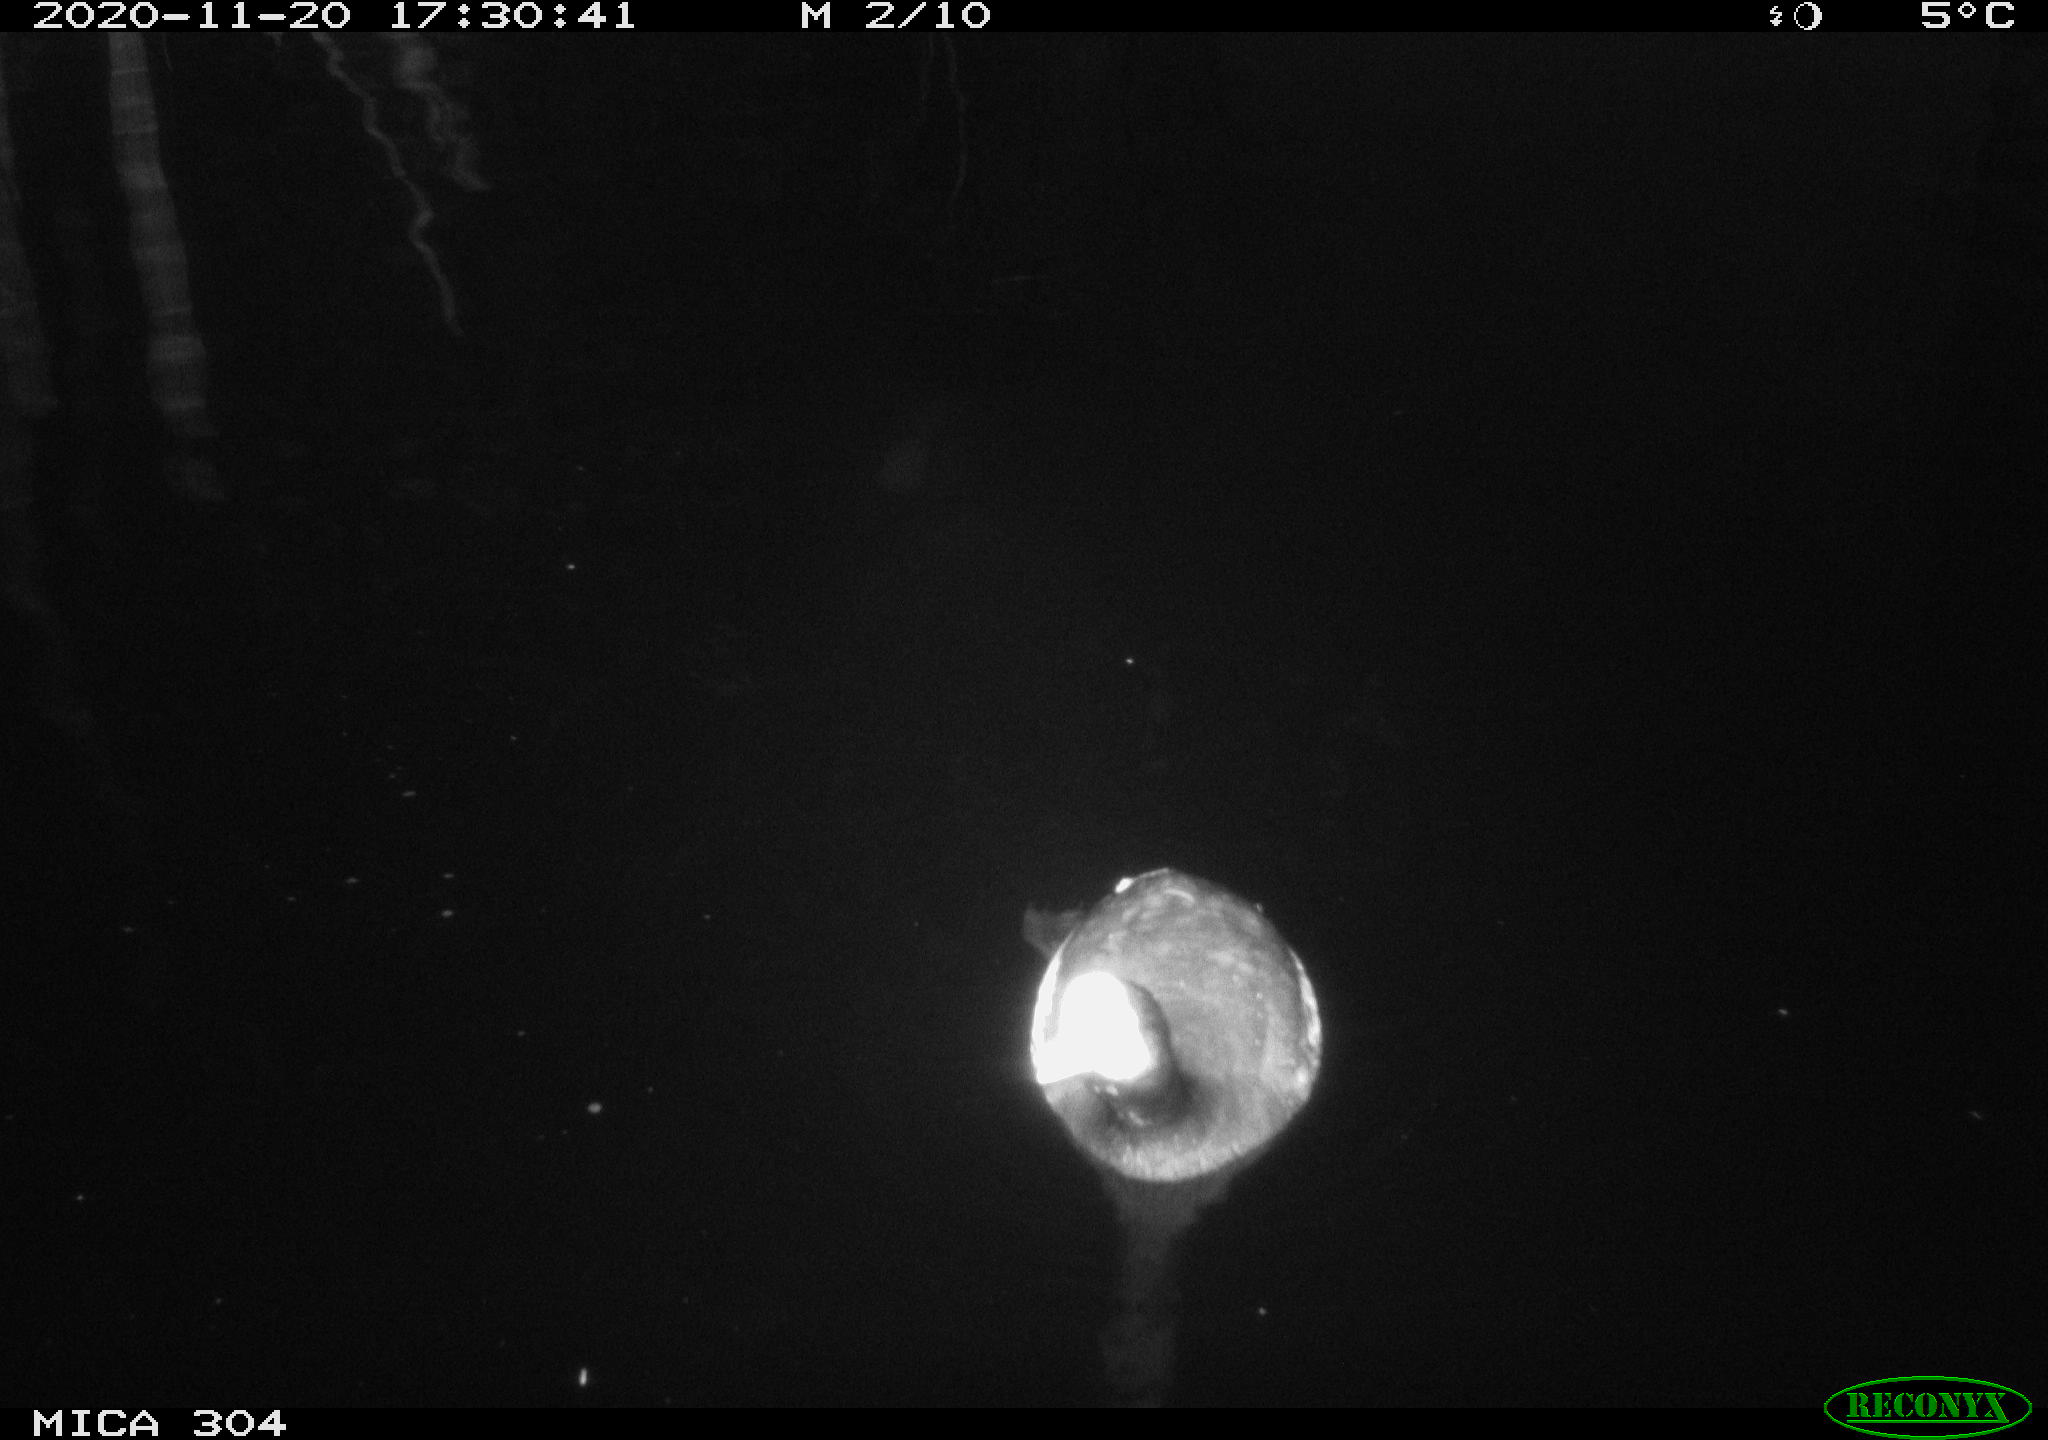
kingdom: Animalia
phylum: Chordata
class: Aves
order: Gruiformes
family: Rallidae
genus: Fulica
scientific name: Fulica atra
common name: Eurasian coot
